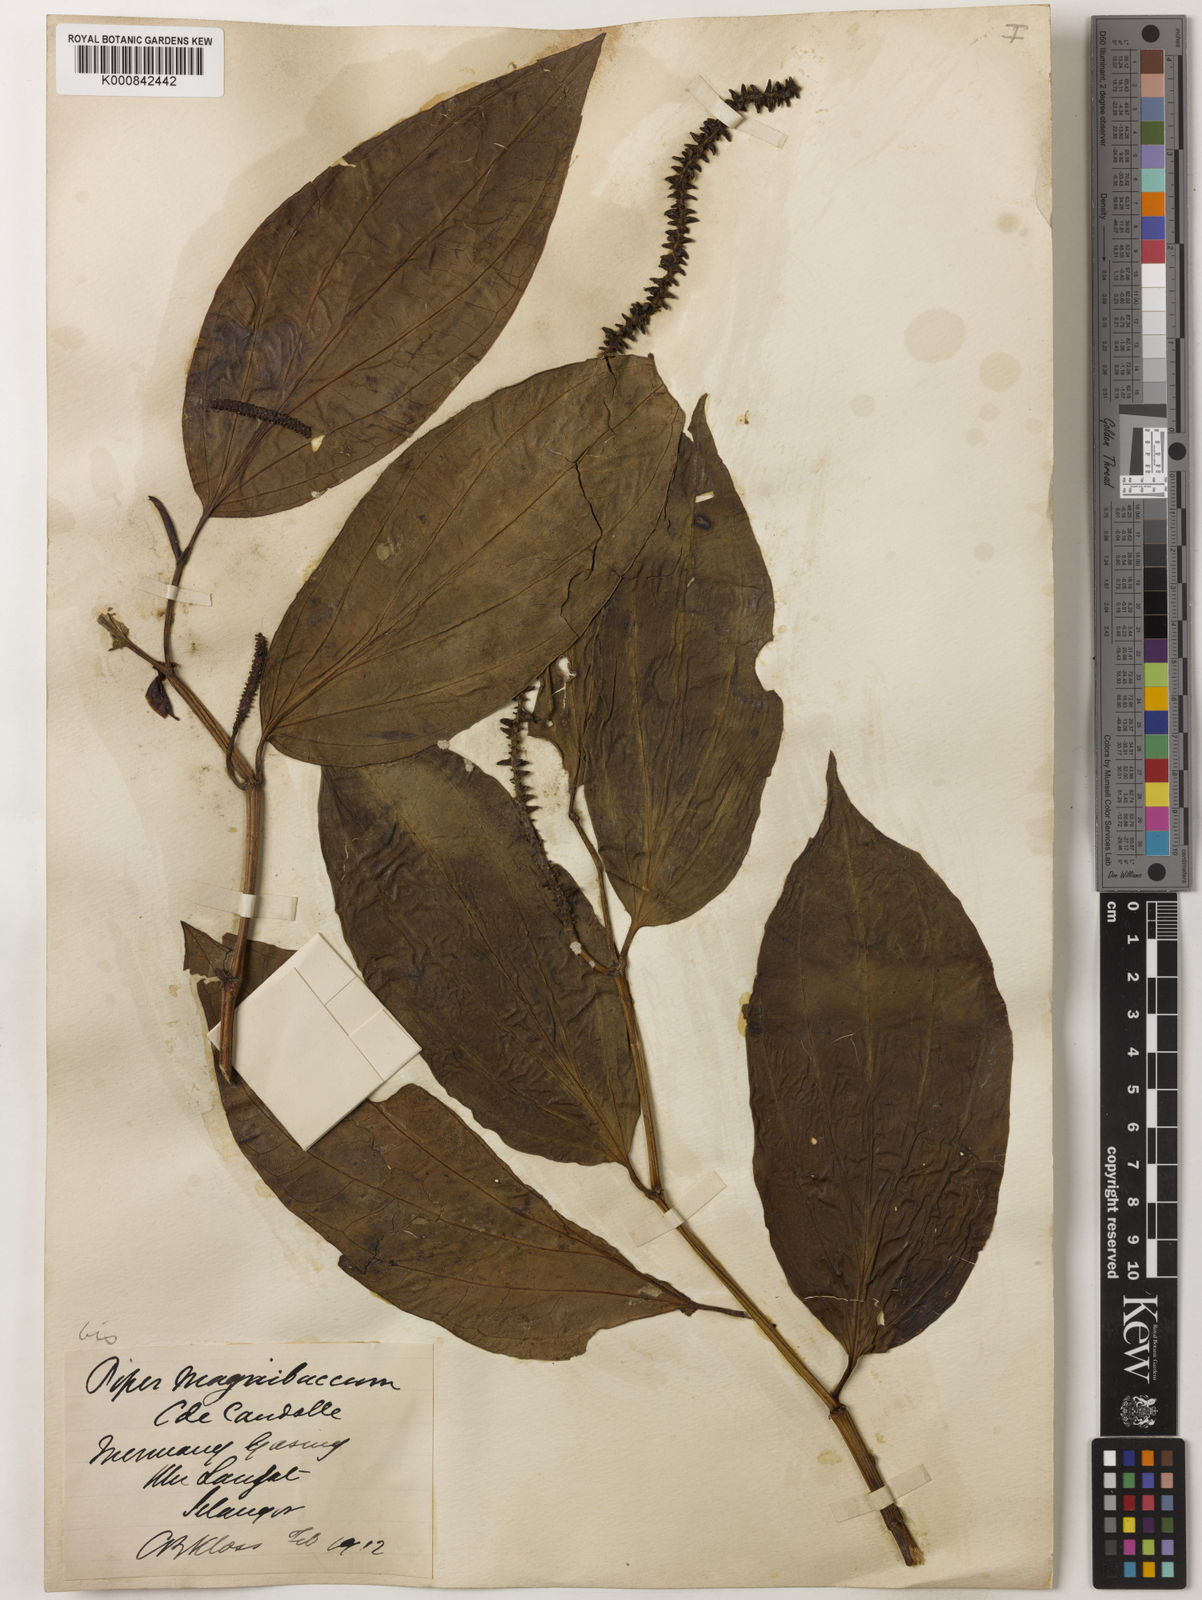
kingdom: Plantae
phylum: Tracheophyta
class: Magnoliopsida
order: Piperales
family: Piperaceae
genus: Piper
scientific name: Piper quinqueangulatum
